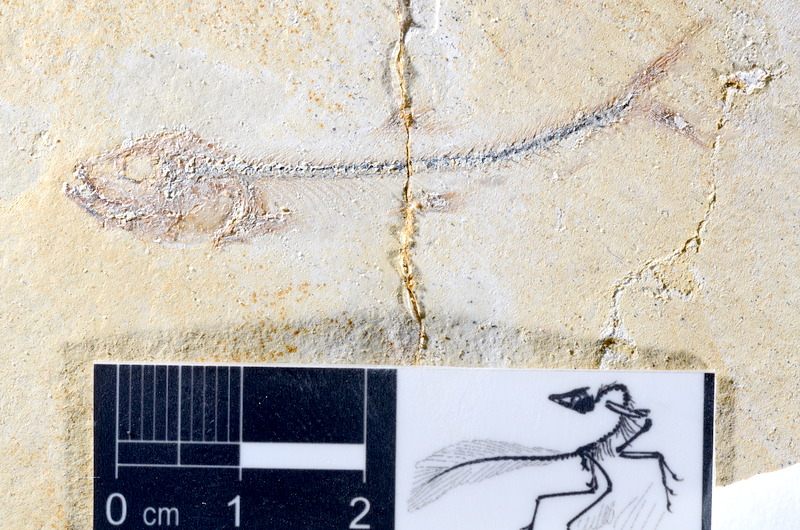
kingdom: Animalia
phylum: Chordata
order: Salmoniformes
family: Orthogonikleithridae
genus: Orthogonikleithrus
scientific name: Orthogonikleithrus hoelli
